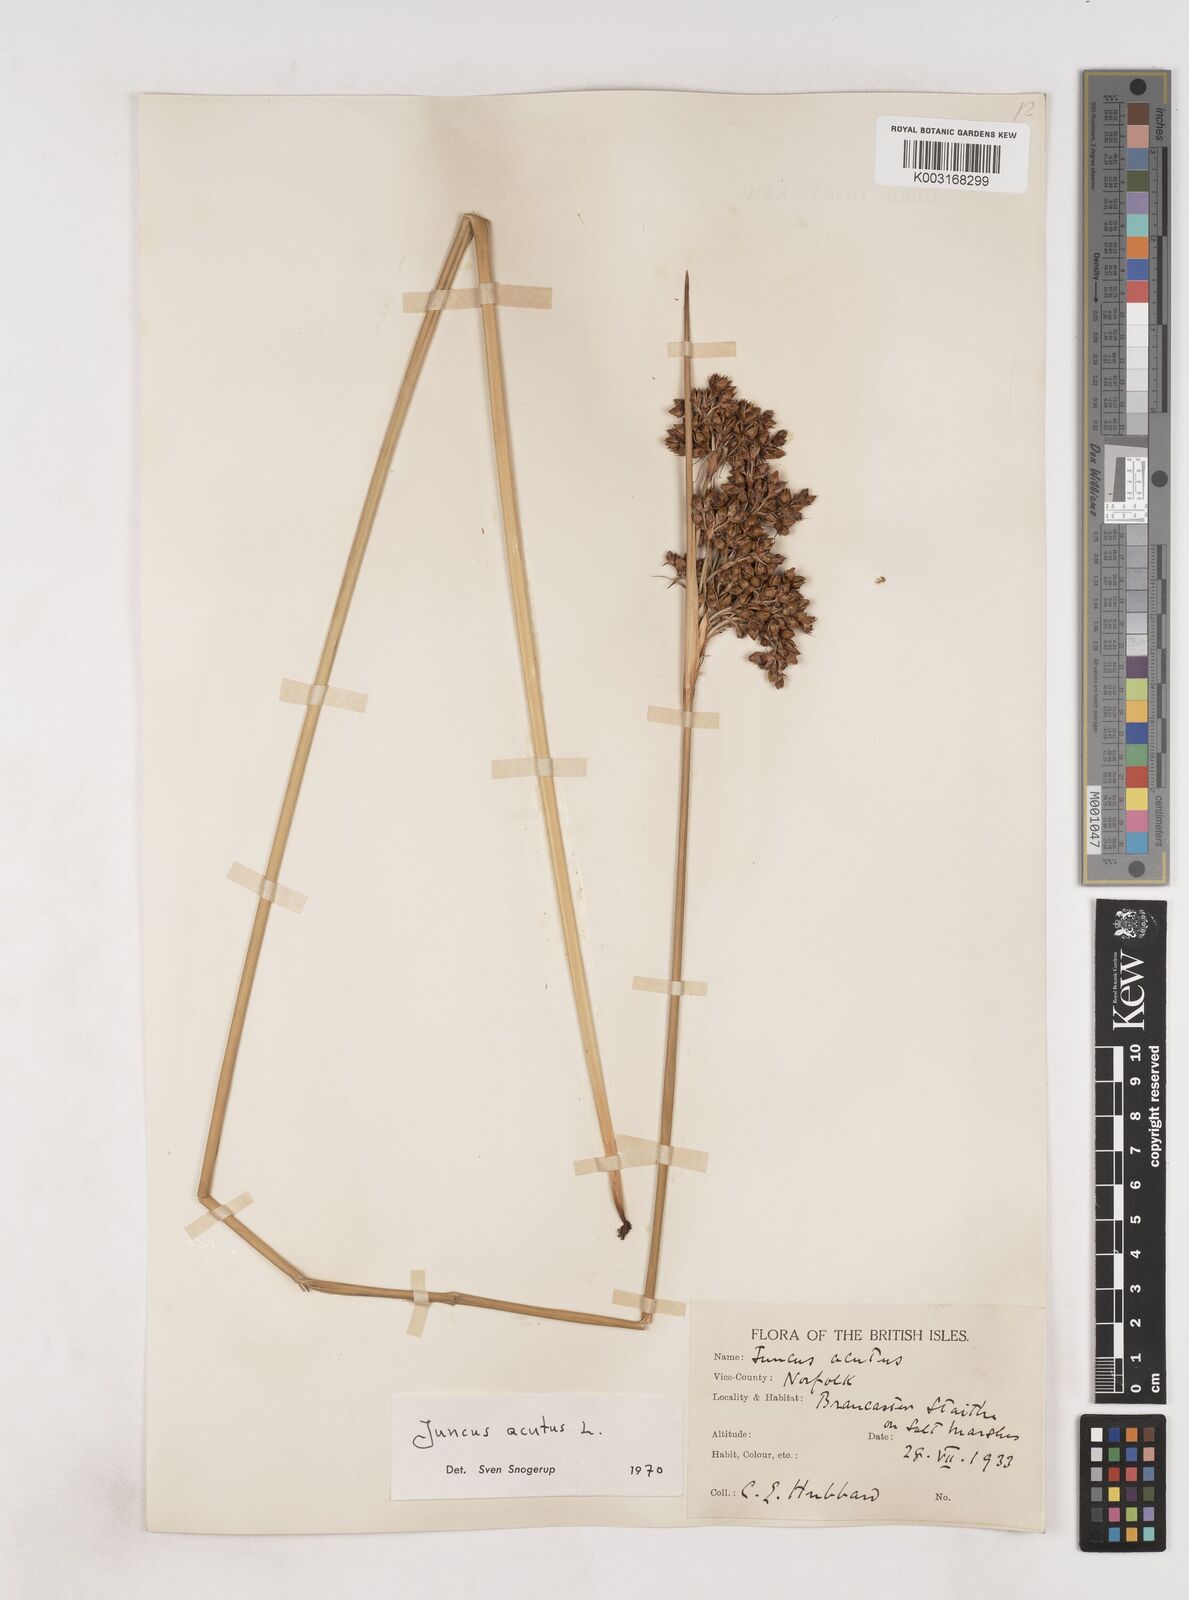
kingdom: Plantae
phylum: Tracheophyta
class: Liliopsida
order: Poales
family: Juncaceae
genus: Juncus
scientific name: Juncus acutus
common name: Sharp rush
